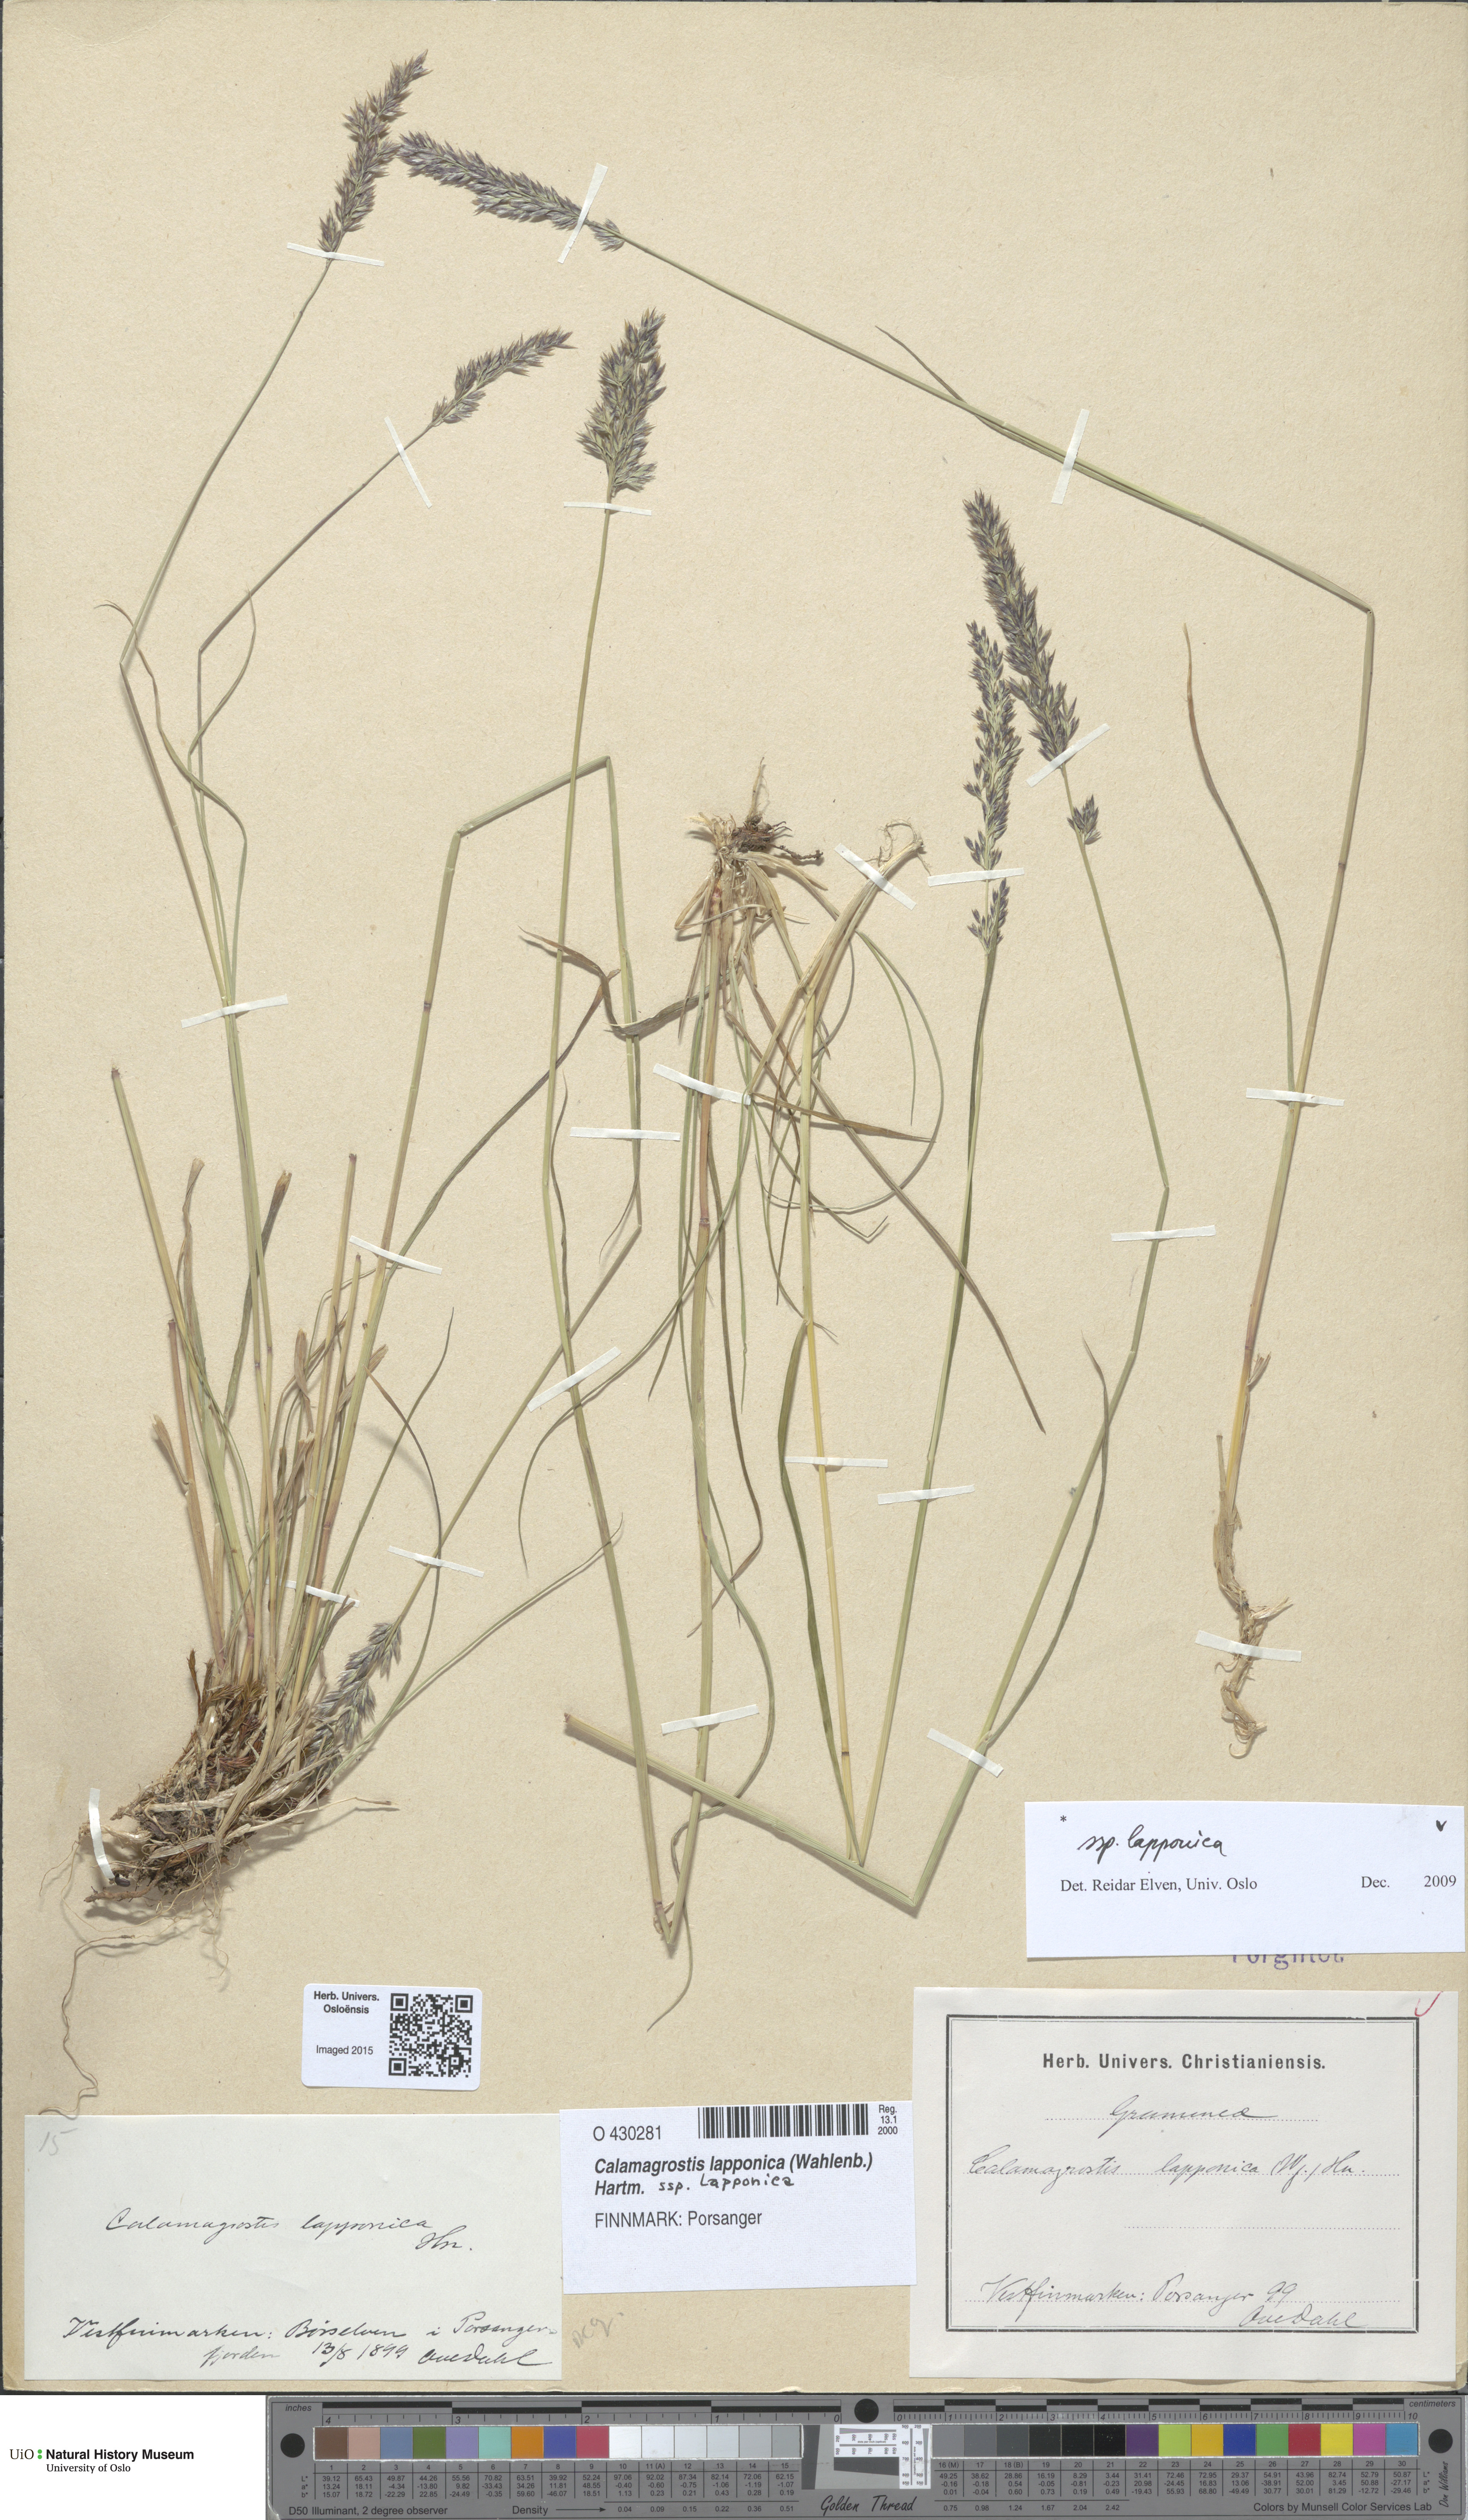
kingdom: Plantae
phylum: Tracheophyta
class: Liliopsida
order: Poales
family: Poaceae
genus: Calamagrostis
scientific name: Calamagrostis lapponica
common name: Lapland reedgrass
